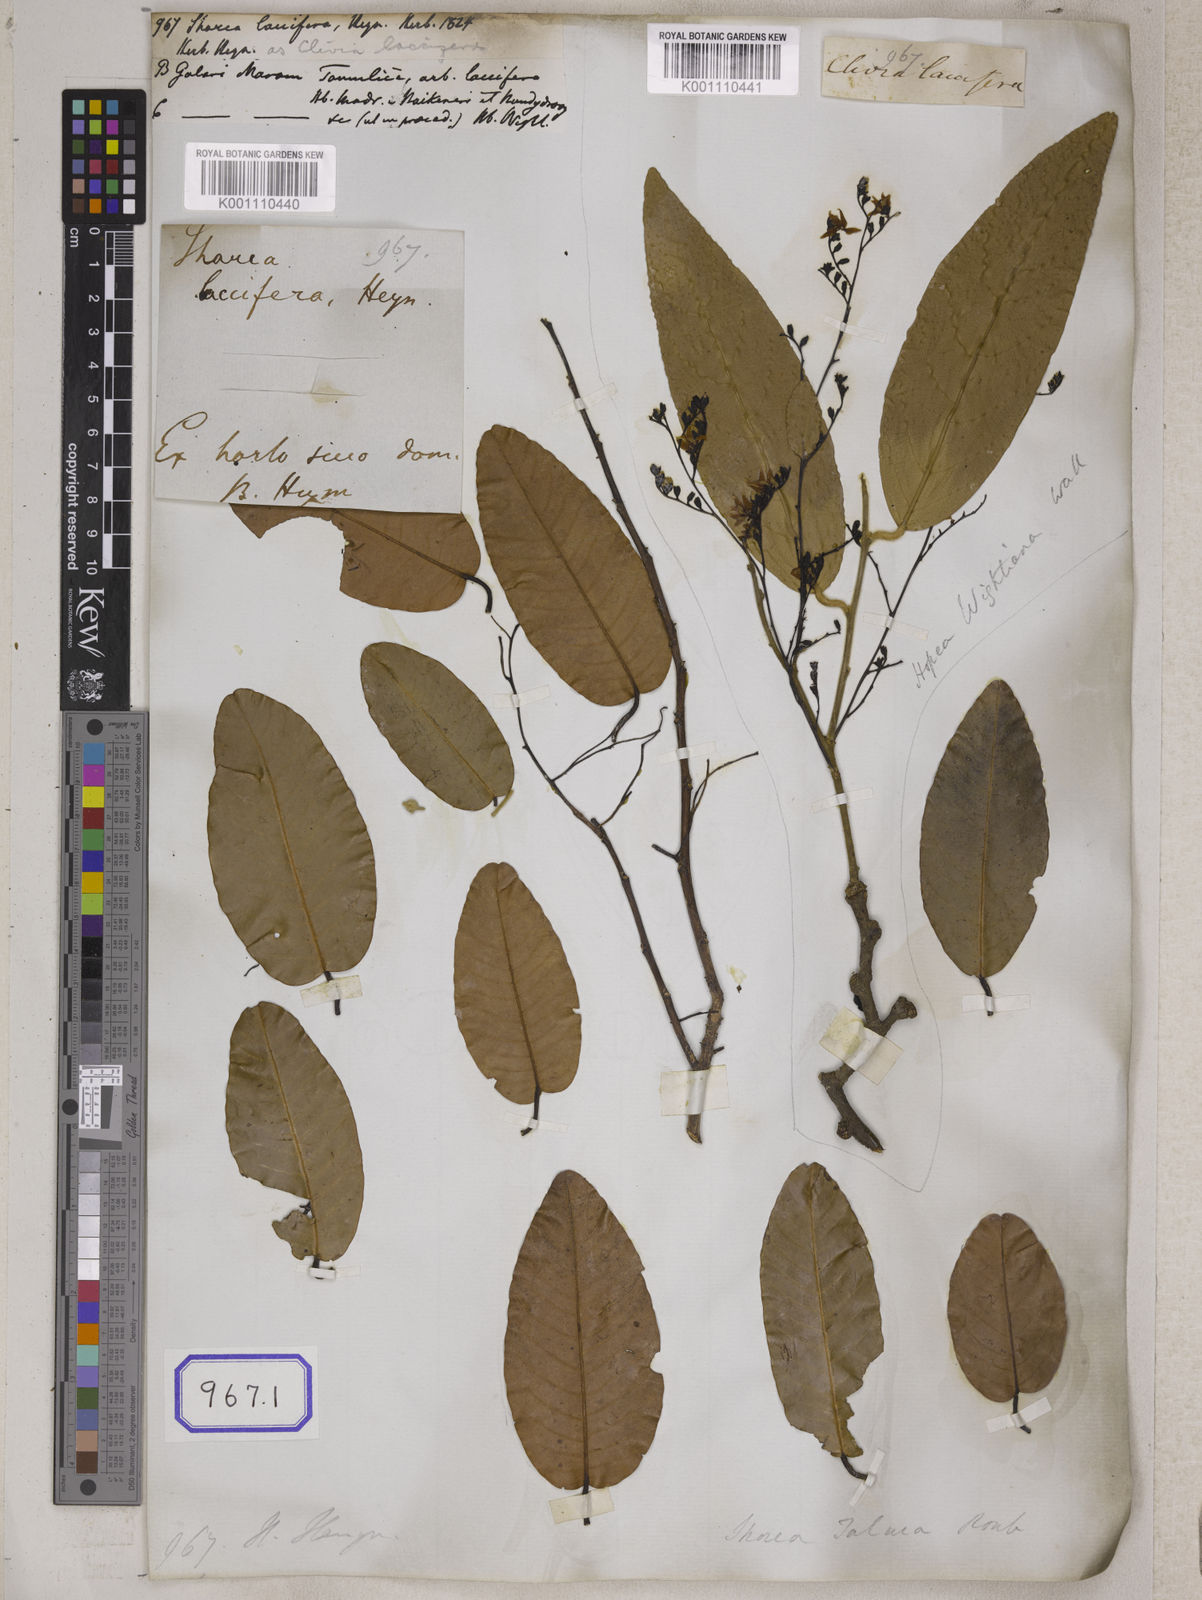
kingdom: Plantae
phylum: Tracheophyta
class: Magnoliopsida
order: Malvales
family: Dipterocarpaceae
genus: Shorea
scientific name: Shorea
